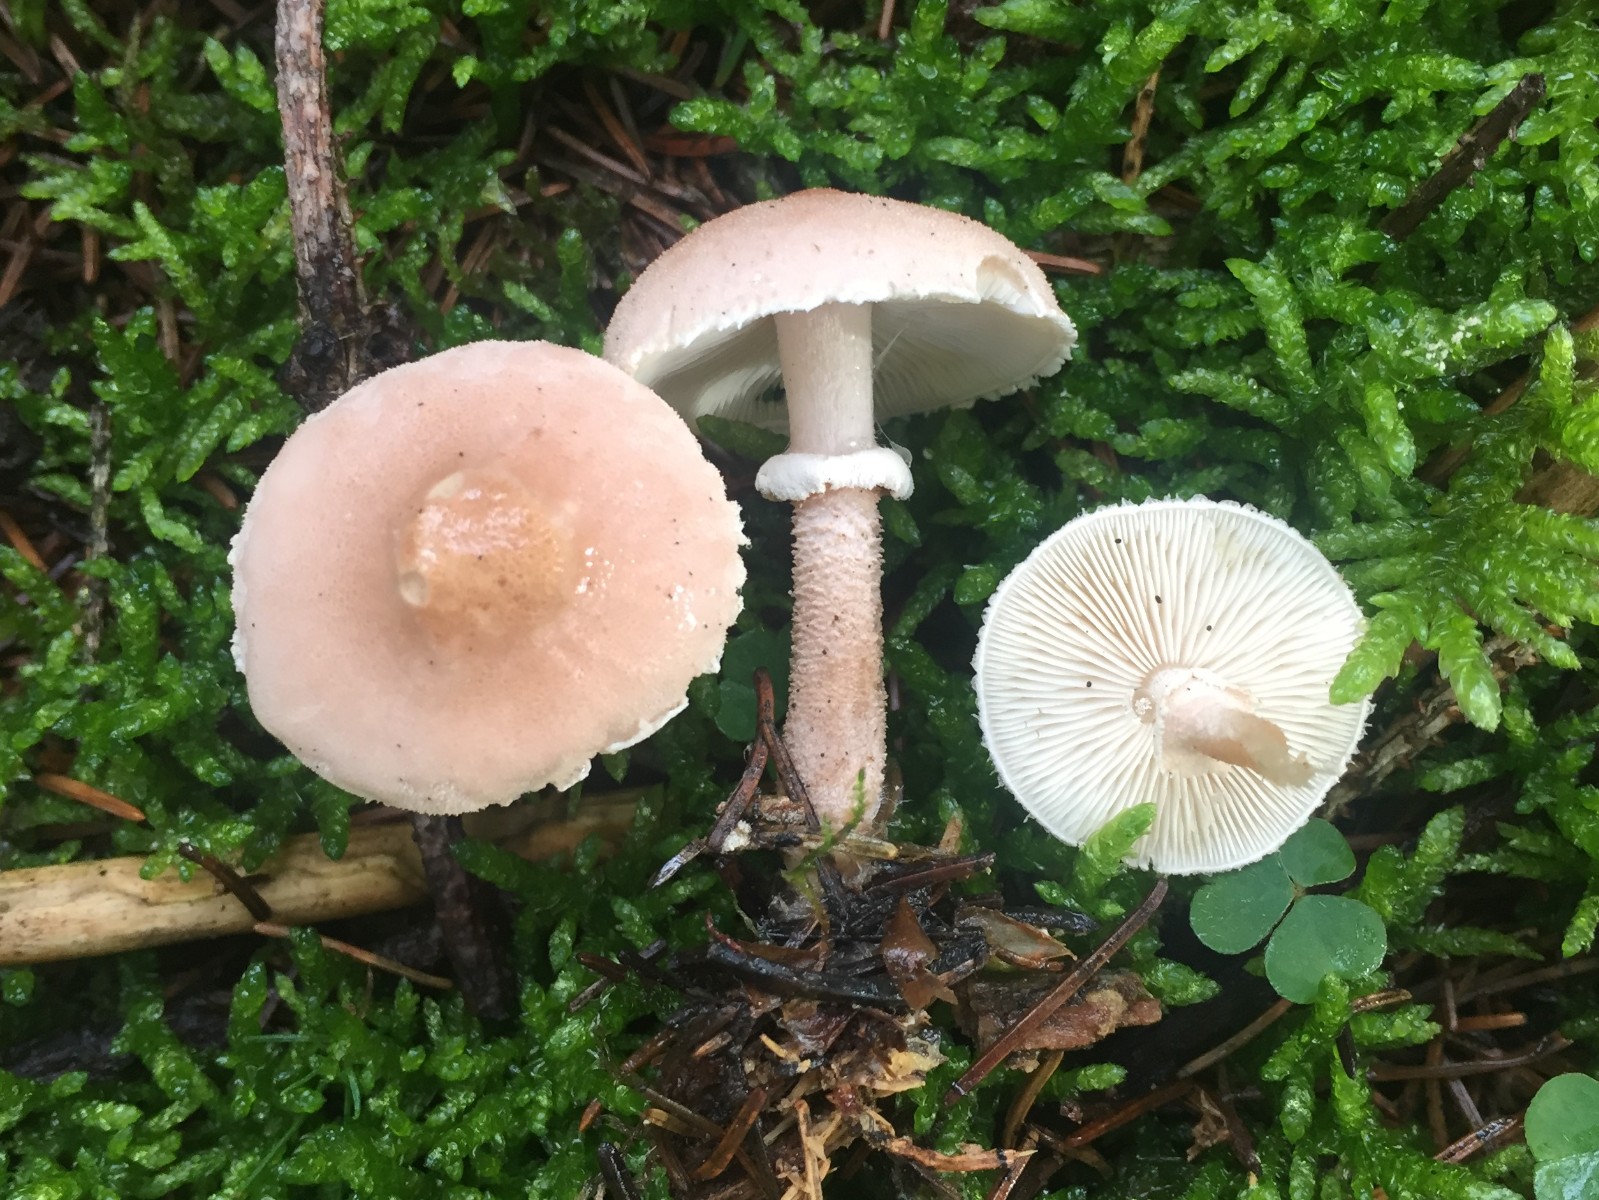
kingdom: Fungi
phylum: Basidiomycota
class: Agaricomycetes
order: Agaricales
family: Tricholomataceae
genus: Cystoderma
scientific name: Cystoderma carcharias
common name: rødgrå grynhat
